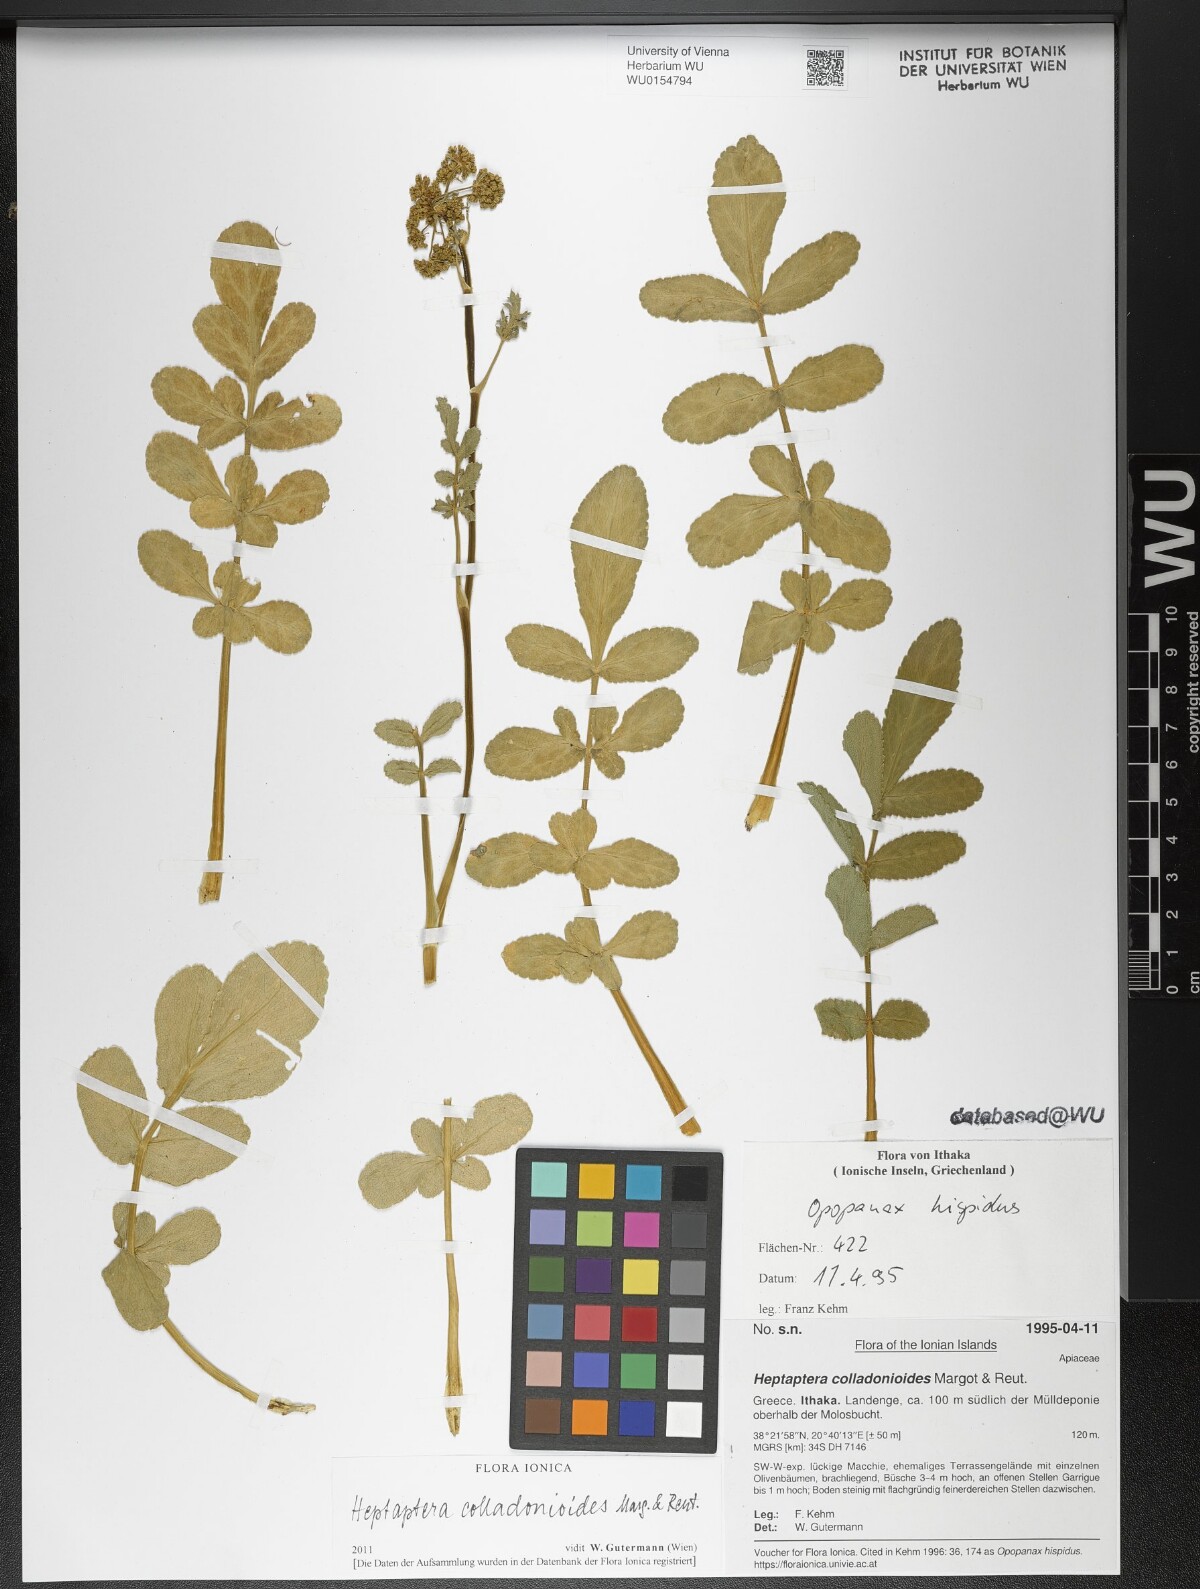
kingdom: Plantae
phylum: Tracheophyta
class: Magnoliopsida
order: Apiales
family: Apiaceae
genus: Heptaptera
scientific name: Heptaptera colladonioides
